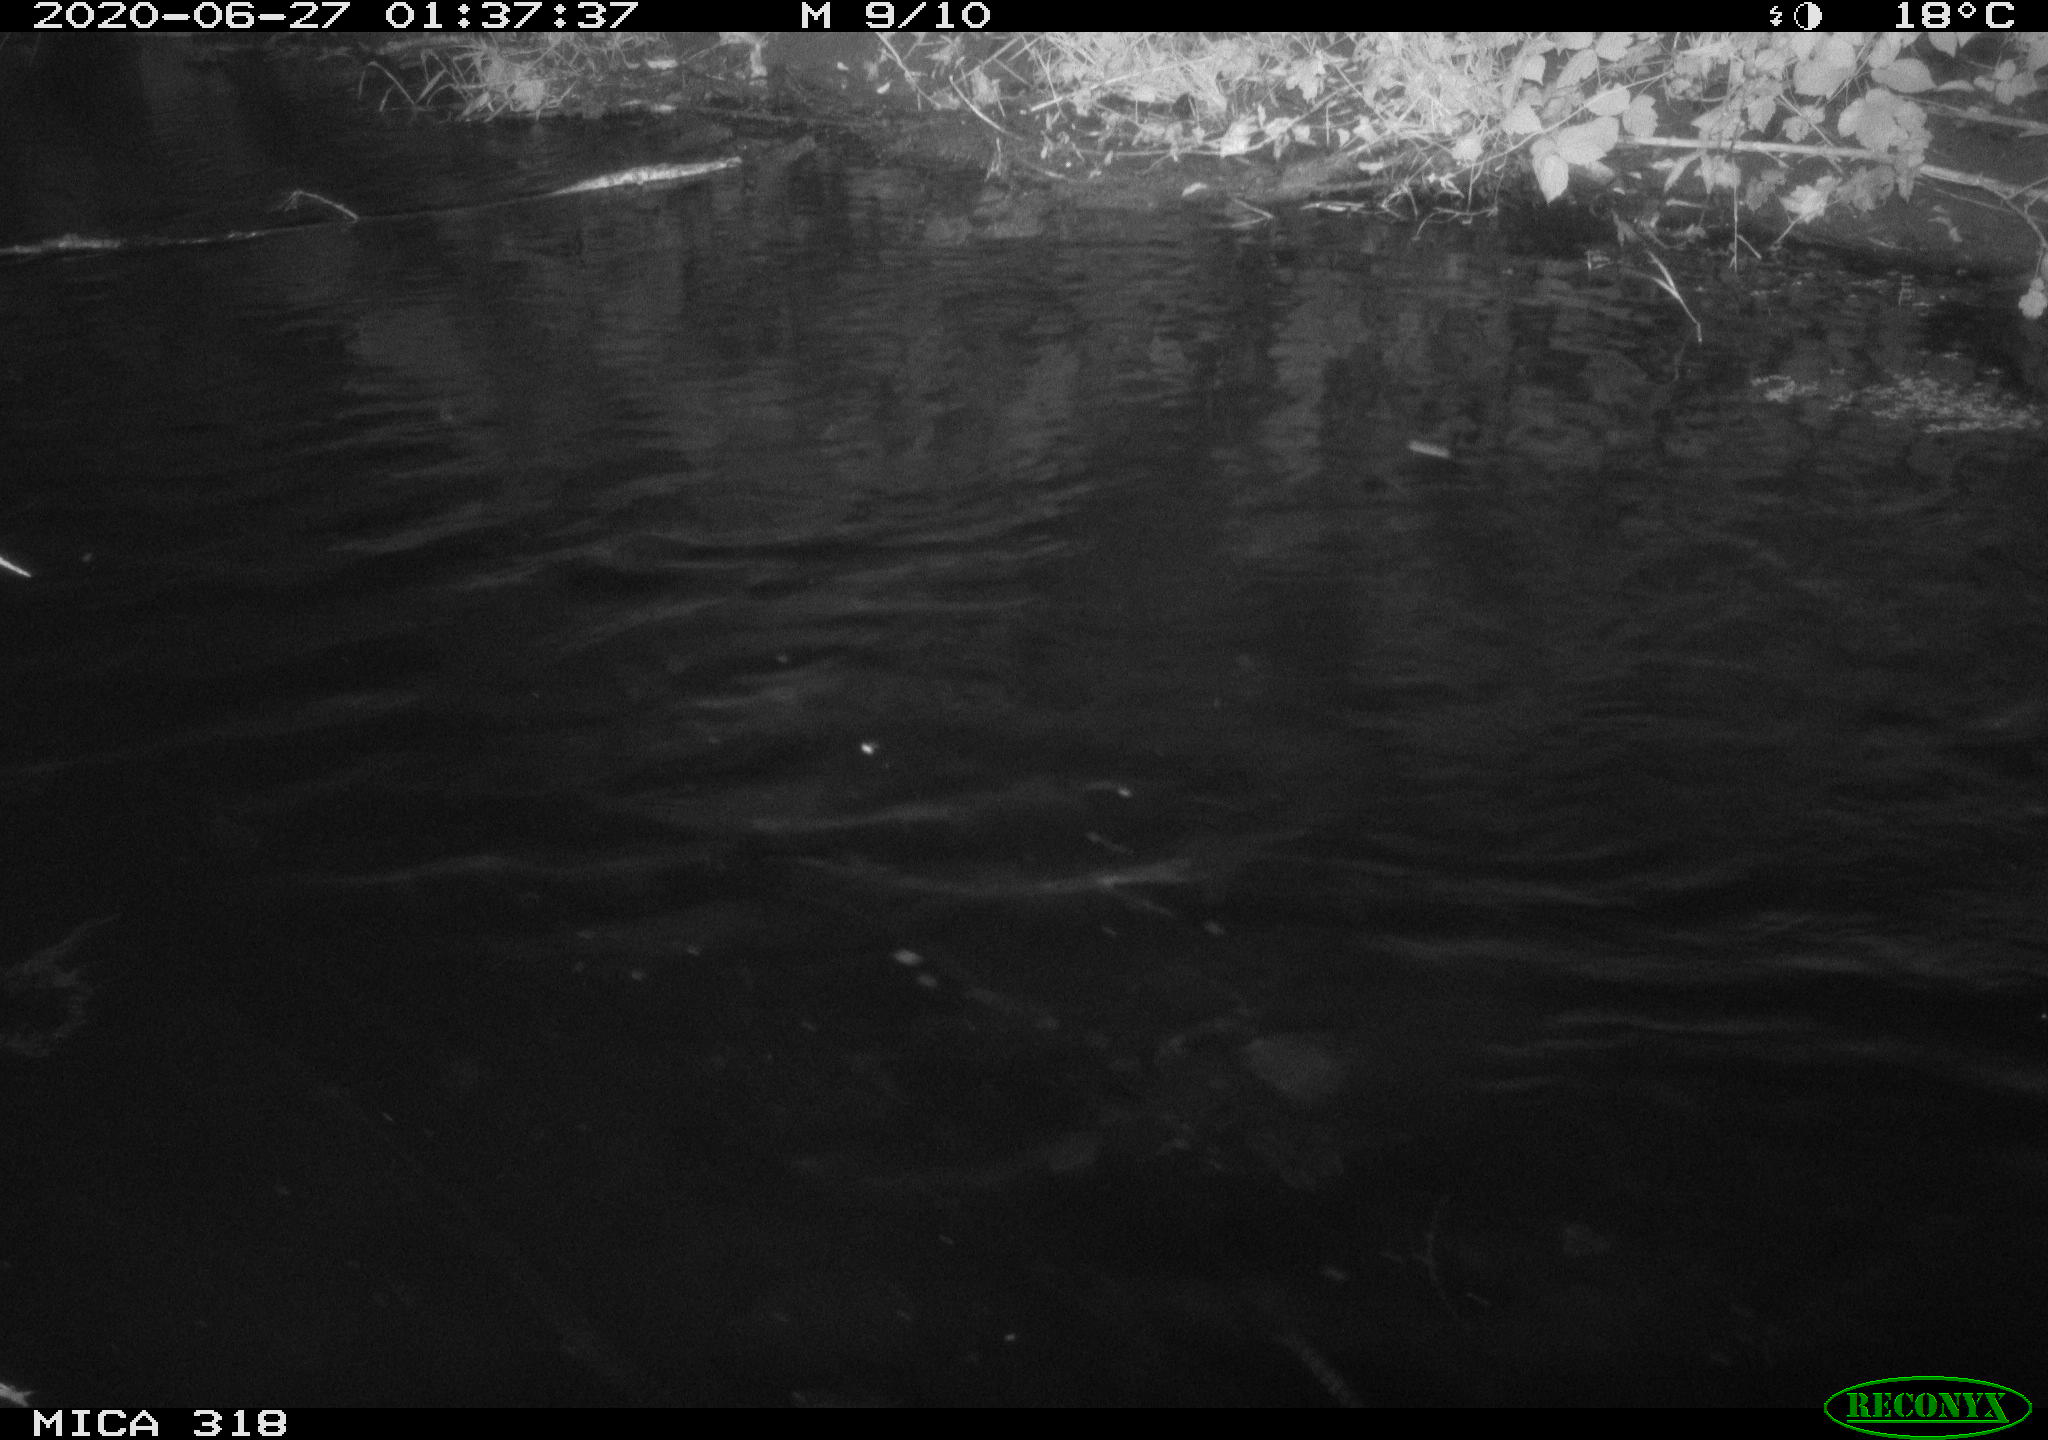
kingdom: Animalia
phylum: Chordata
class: Aves
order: Anseriformes
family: Anatidae
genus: Anas
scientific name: Anas platyrhynchos
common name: Mallard
